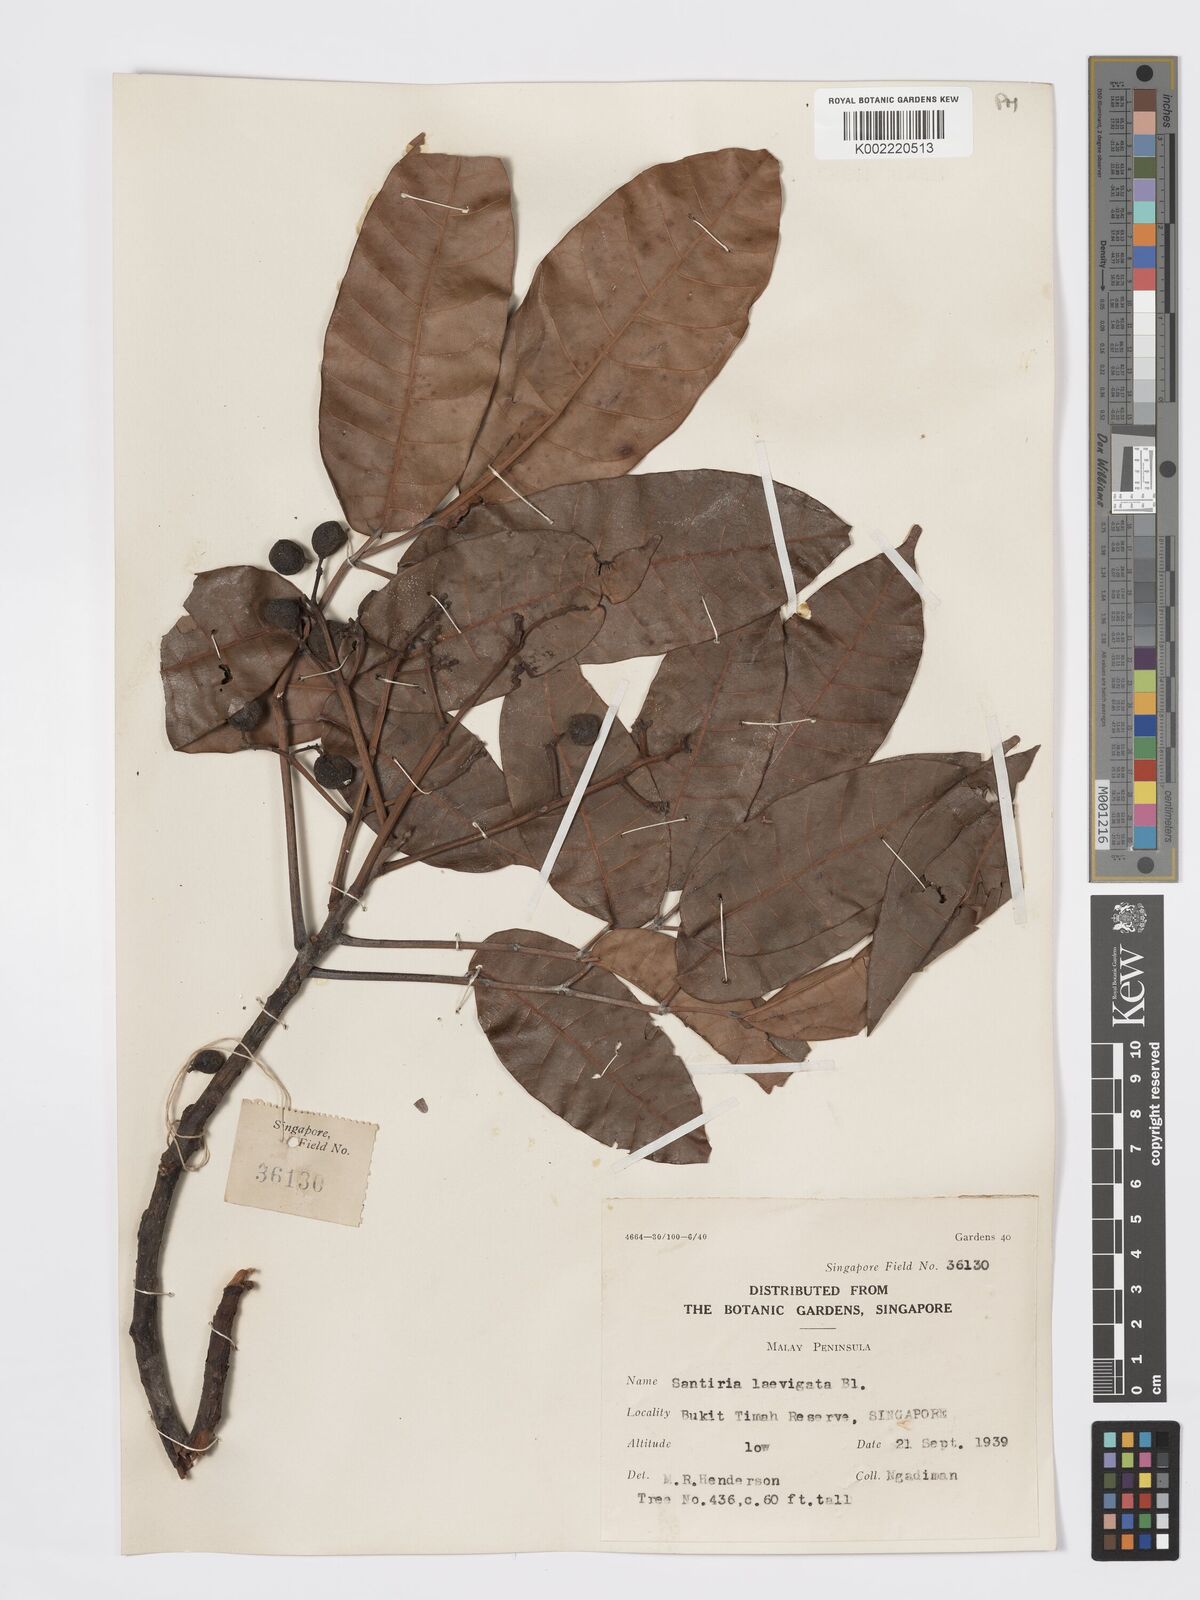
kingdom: Plantae
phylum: Tracheophyta
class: Magnoliopsida
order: Sapindales
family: Burseraceae
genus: Santiria
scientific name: Santiria laevigata
